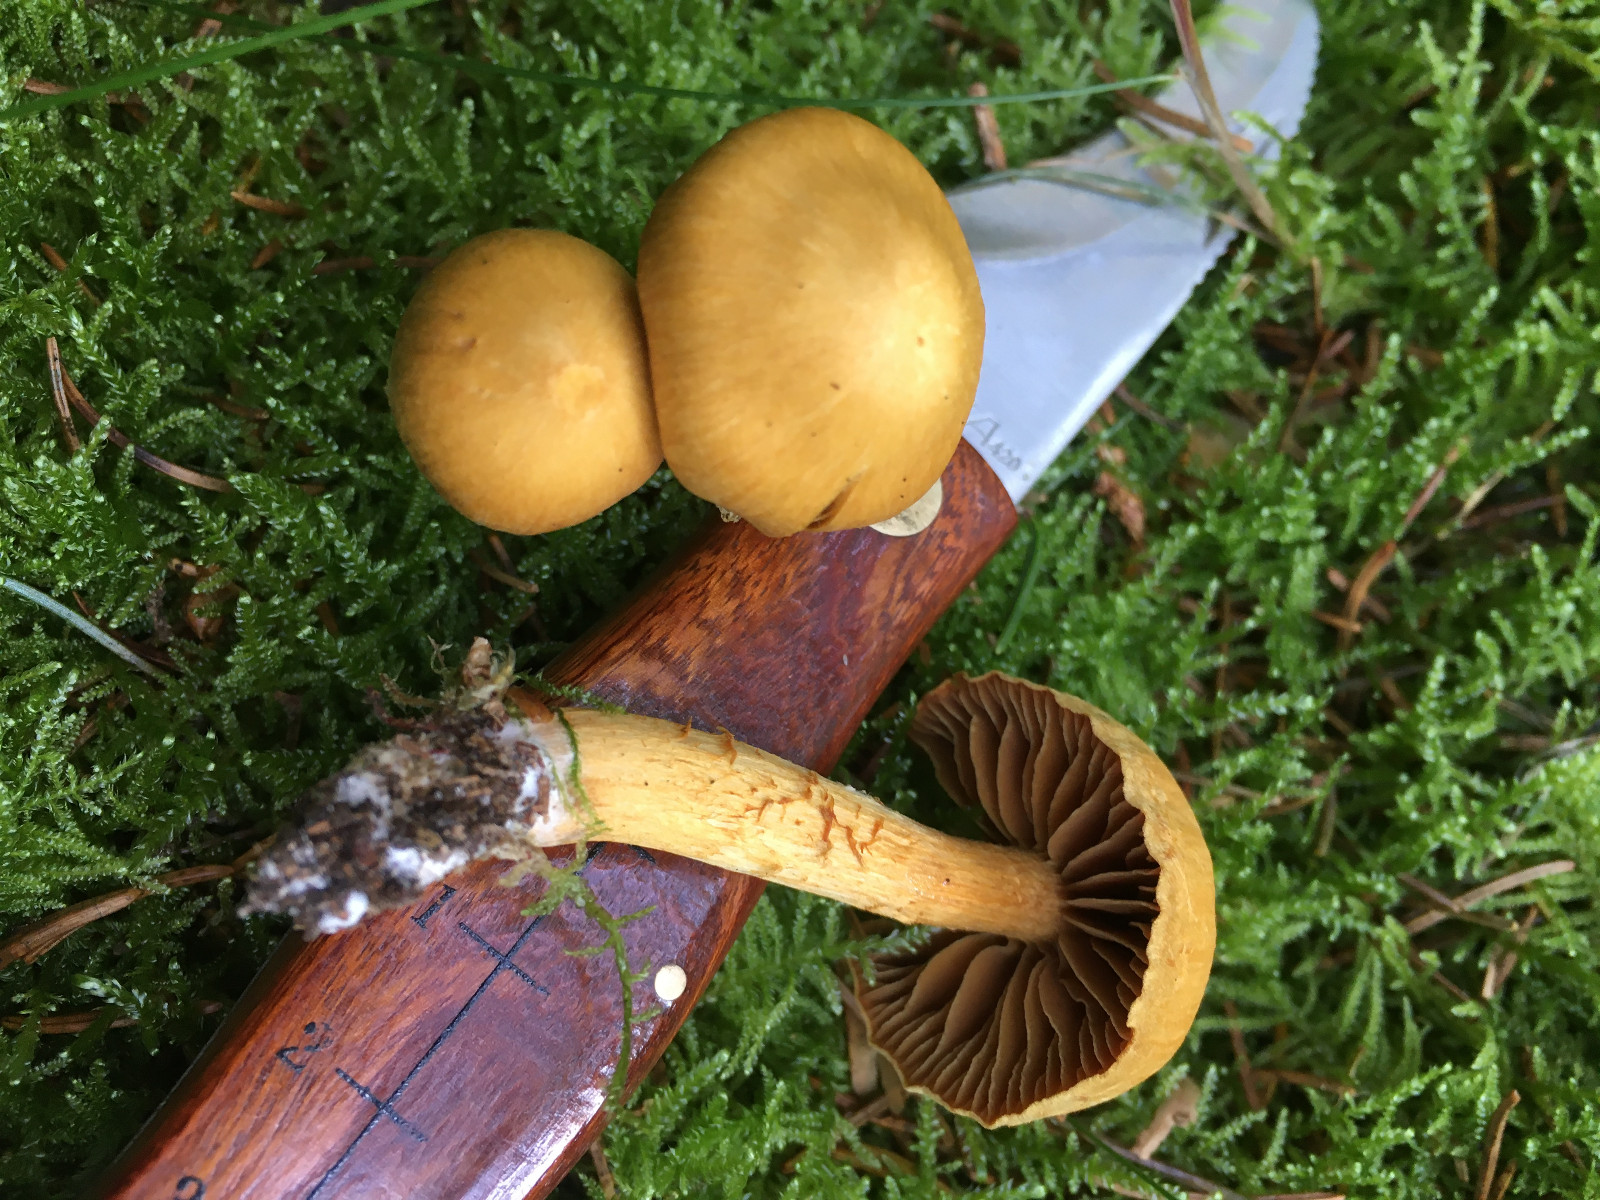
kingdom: Fungi
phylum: Basidiomycota
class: Agaricomycetes
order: Agaricales
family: Cortinariaceae
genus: Cortinarius
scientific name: Cortinarius gentilis
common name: bæltet slørhat
